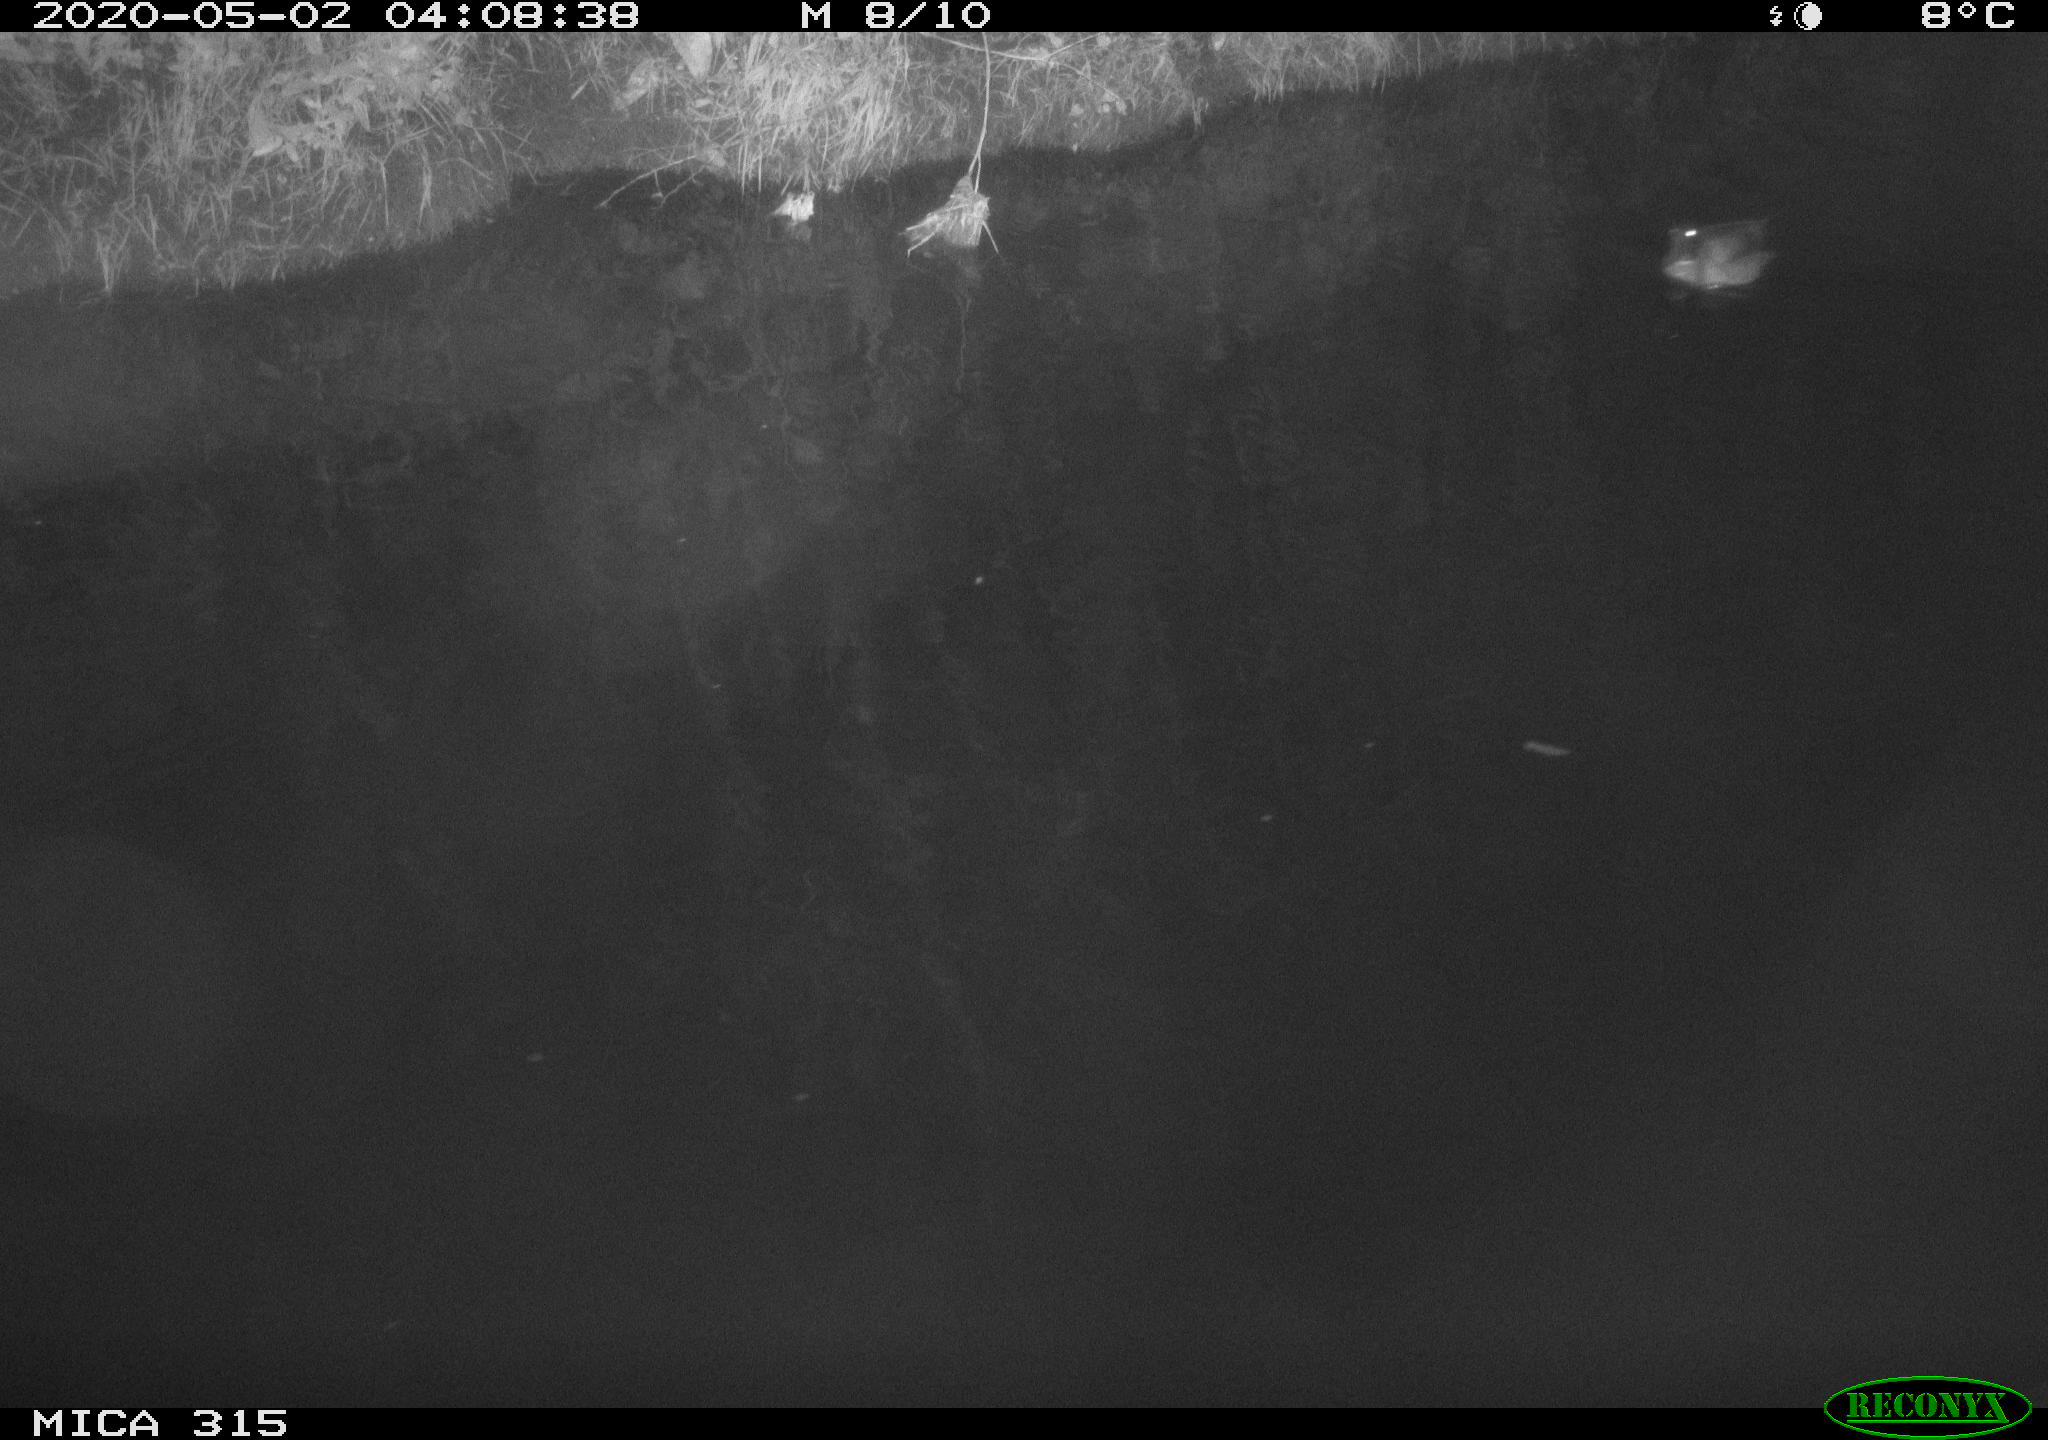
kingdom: Animalia
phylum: Chordata
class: Aves
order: Anseriformes
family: Anatidae
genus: Anas
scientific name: Anas platyrhynchos
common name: Mallard
